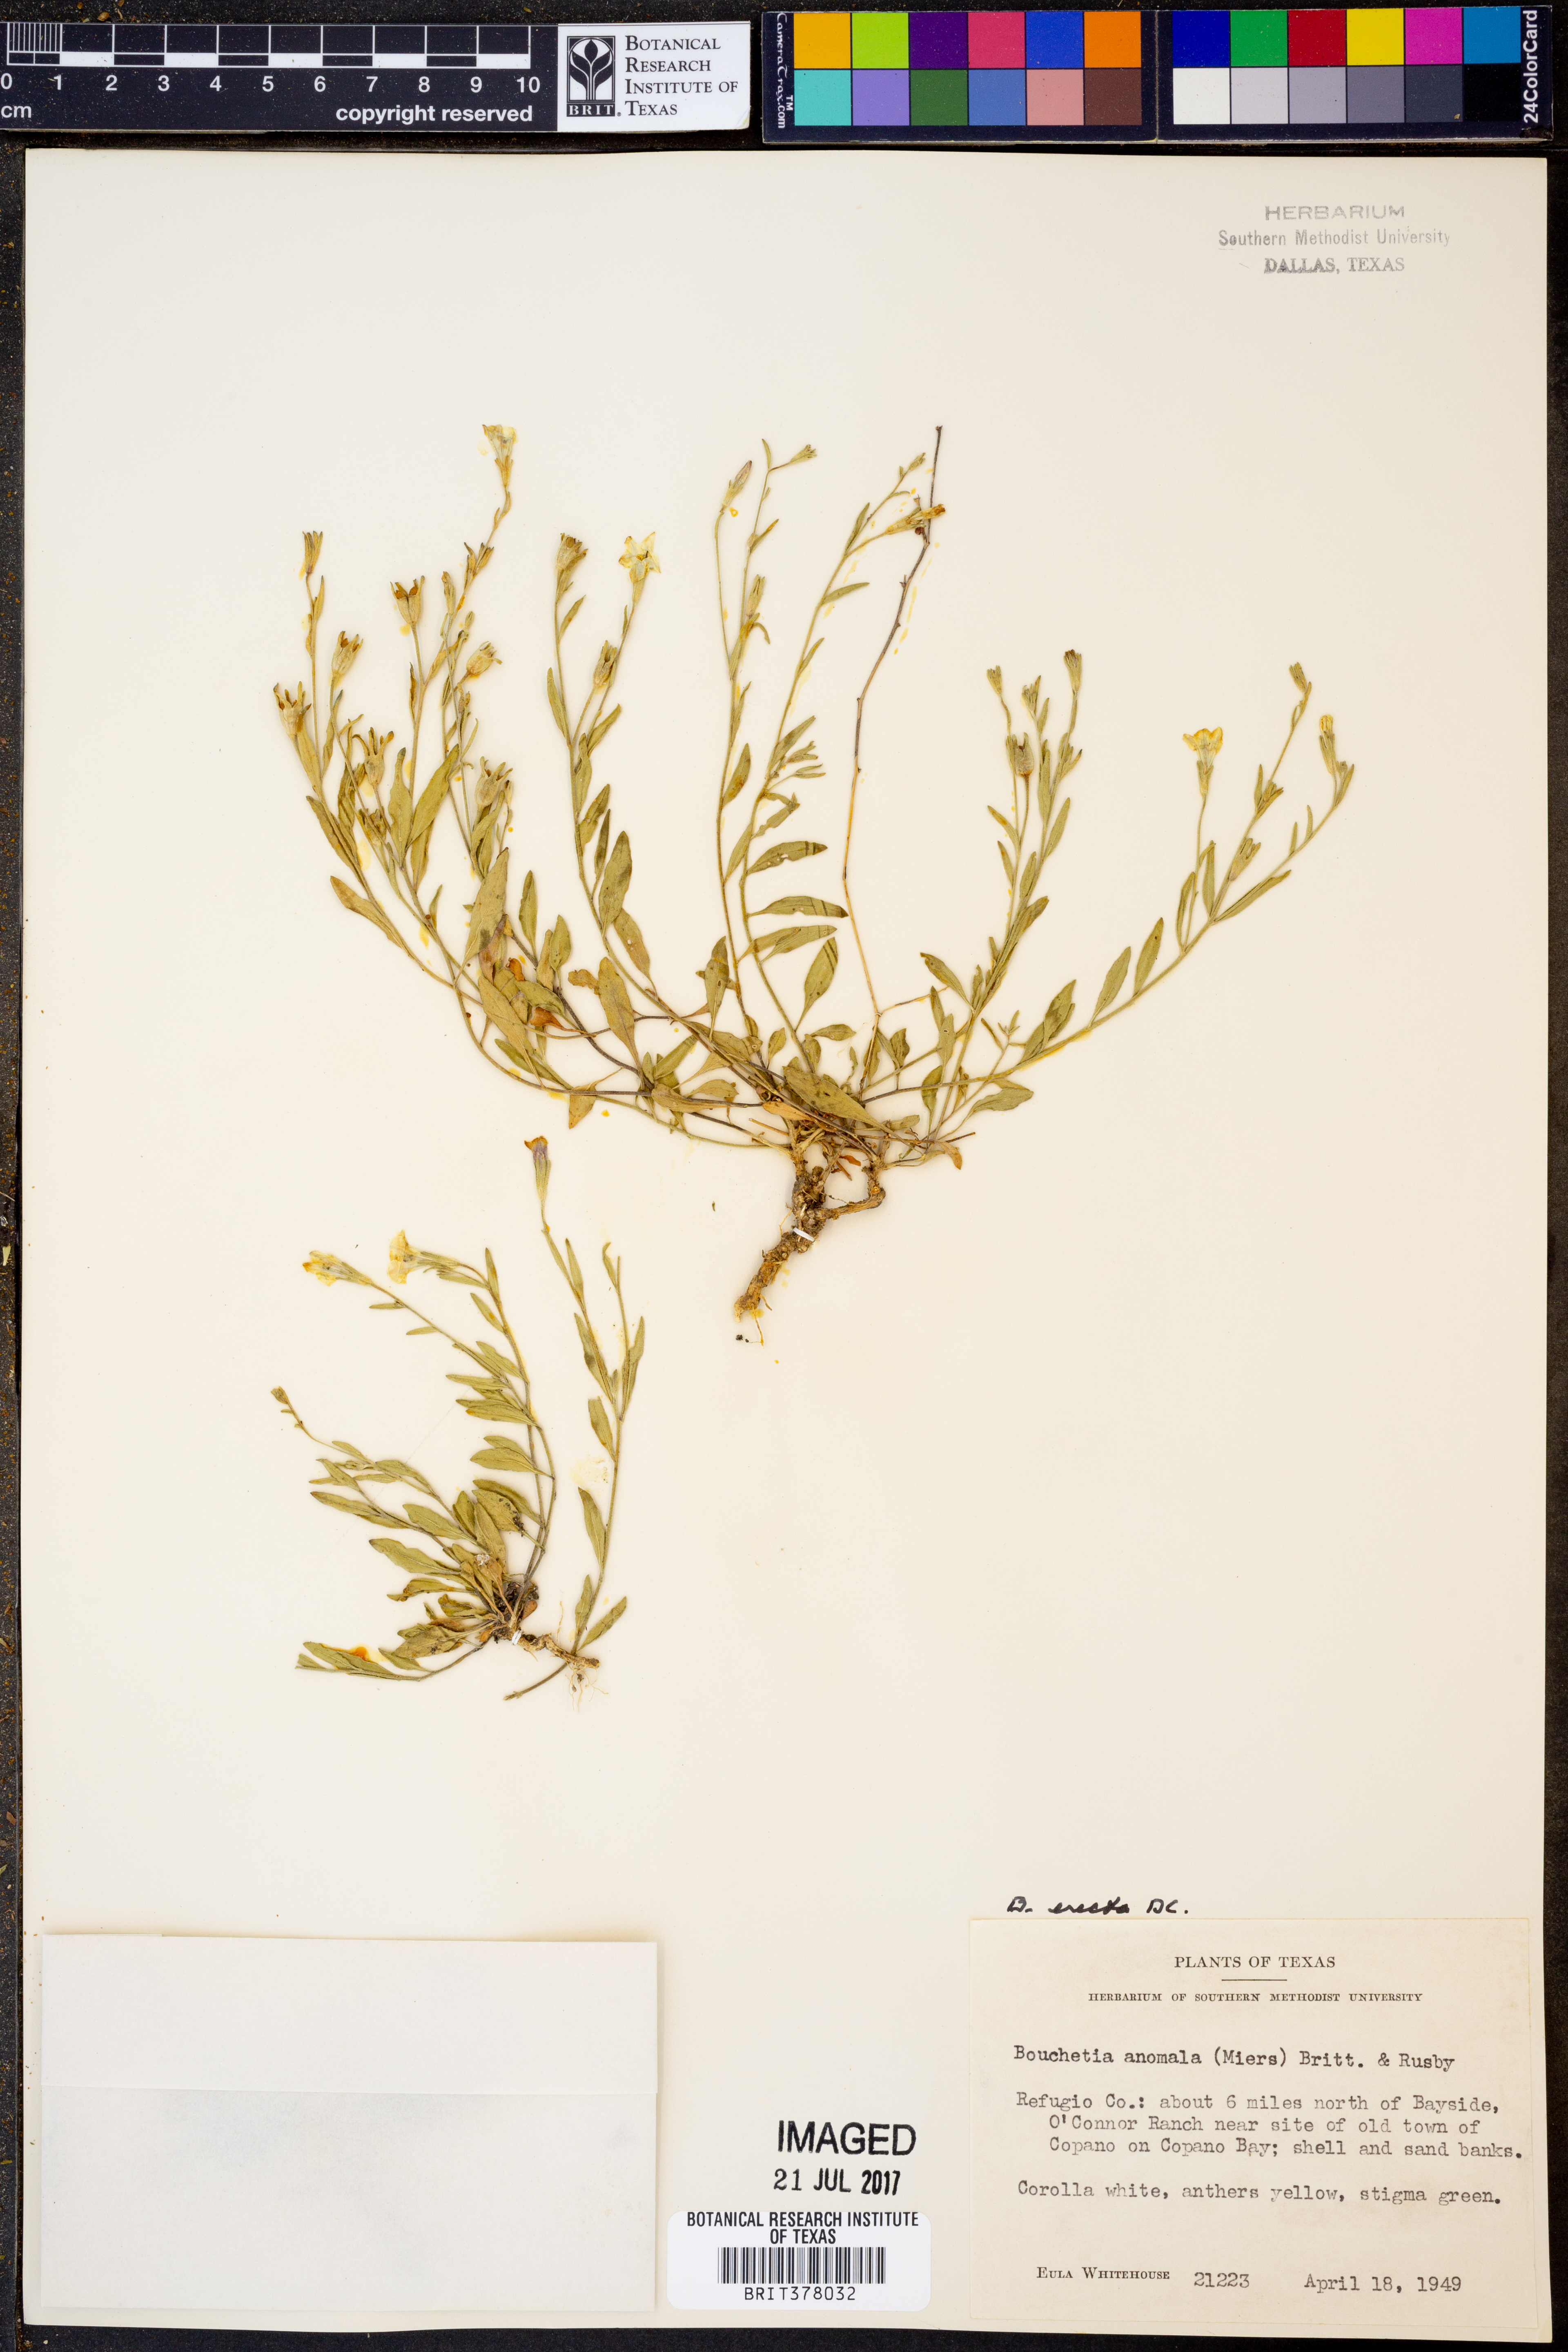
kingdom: Plantae
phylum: Tracheophyta
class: Magnoliopsida
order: Solanales
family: Solanaceae
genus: Salpiglossis
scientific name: Salpiglossis anomala
